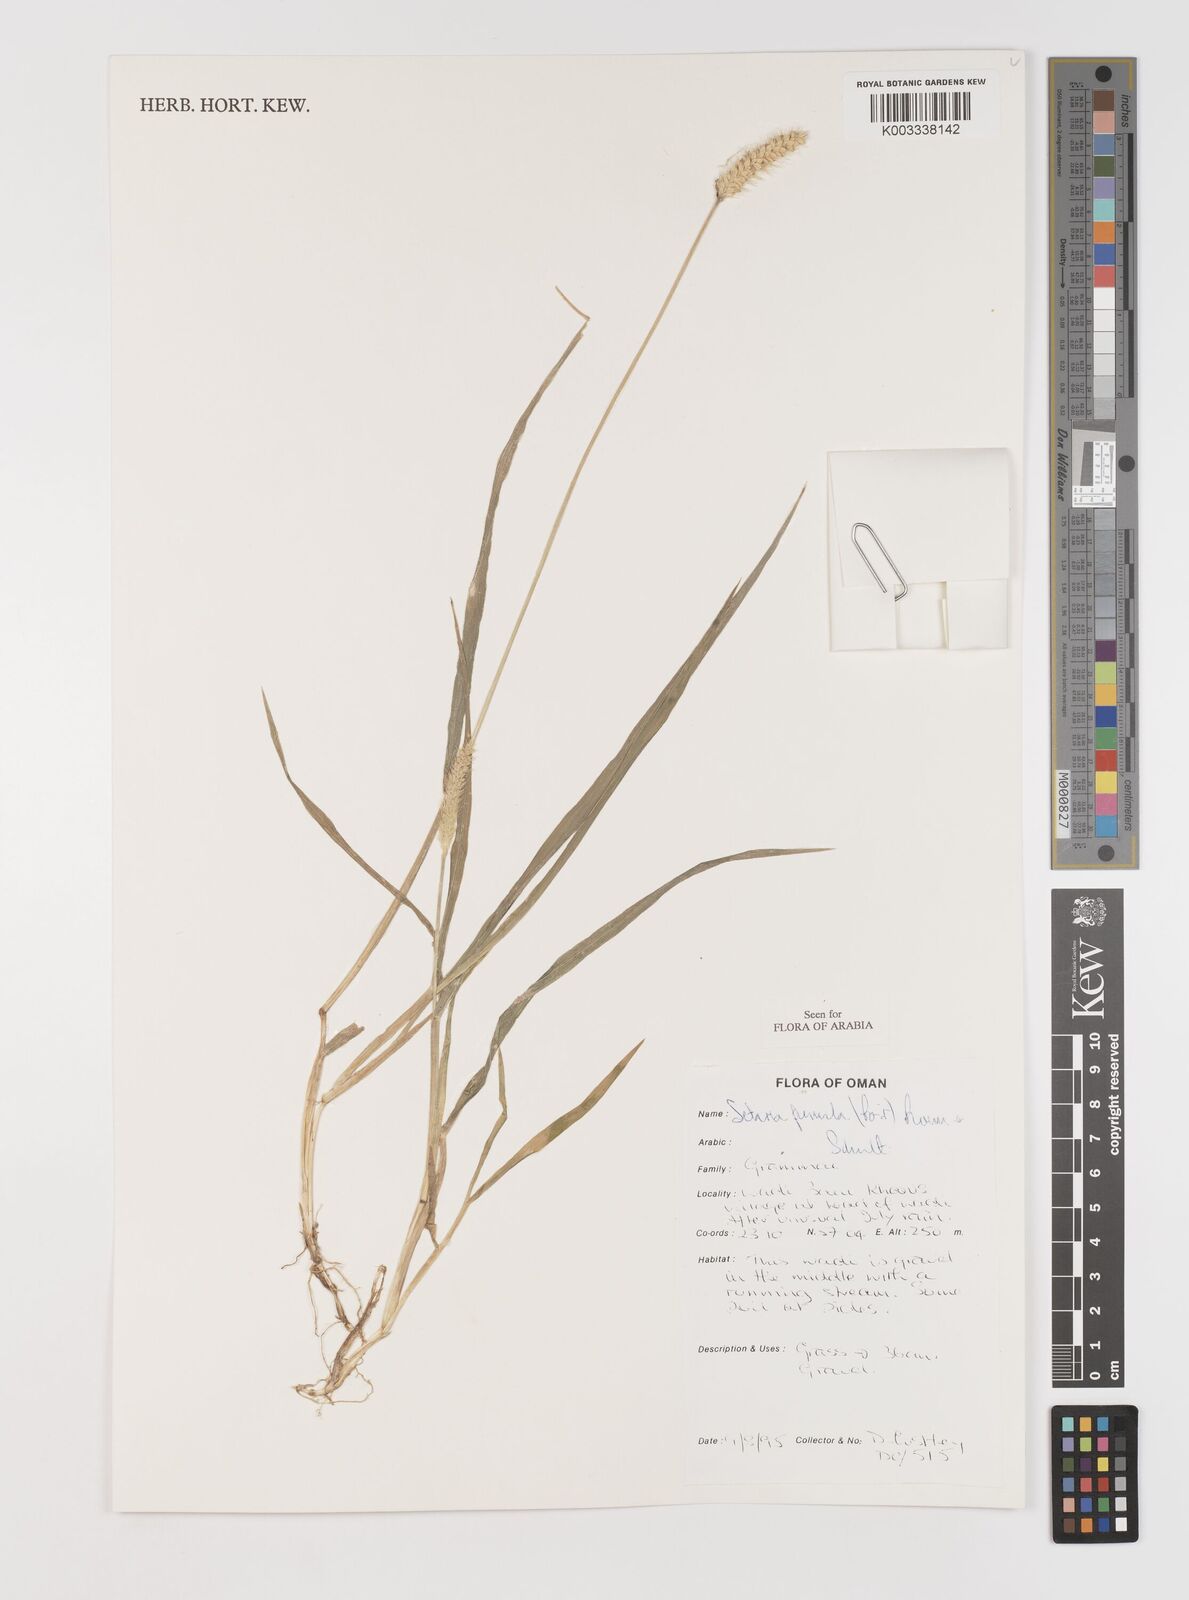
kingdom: Plantae
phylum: Tracheophyta
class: Liliopsida
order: Poales
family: Poaceae
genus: Setaria
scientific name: Setaria pumila
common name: Yellow bristle-grass
